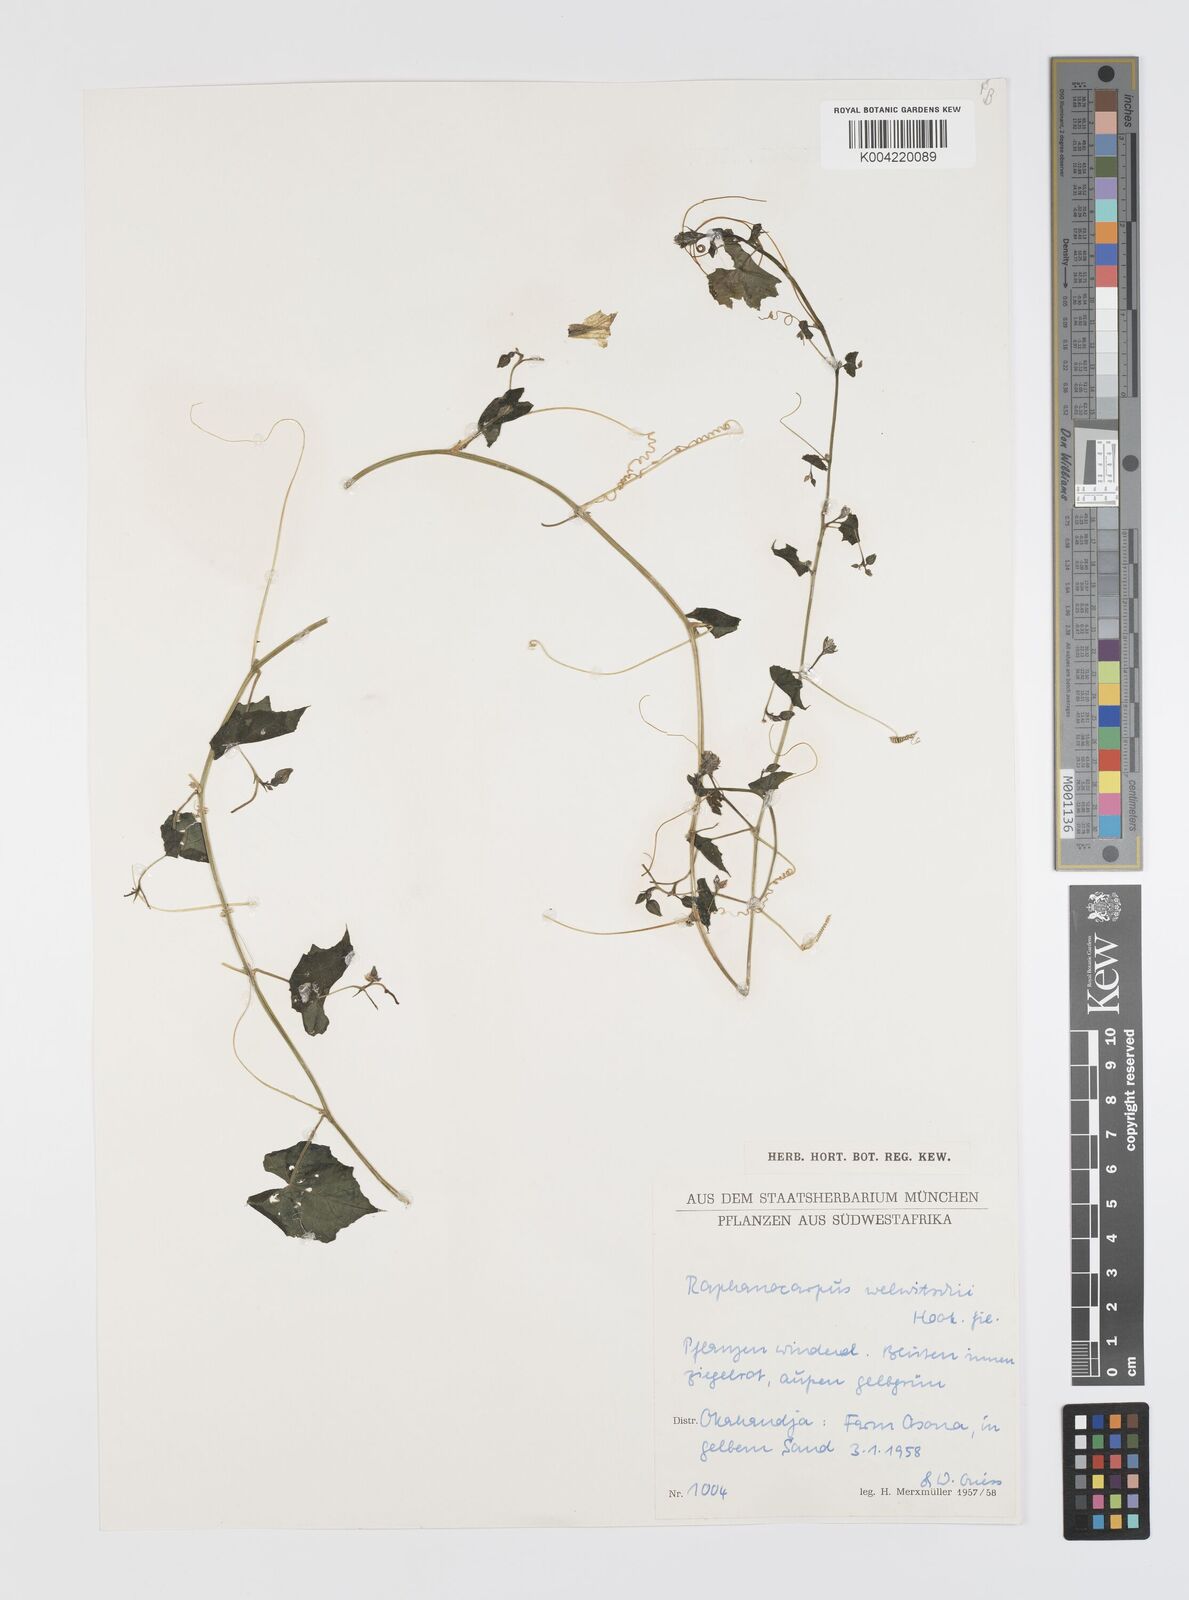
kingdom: Plantae
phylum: Tracheophyta
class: Magnoliopsida
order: Cucurbitales
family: Cucurbitaceae
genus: Momordica
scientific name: Momordica
